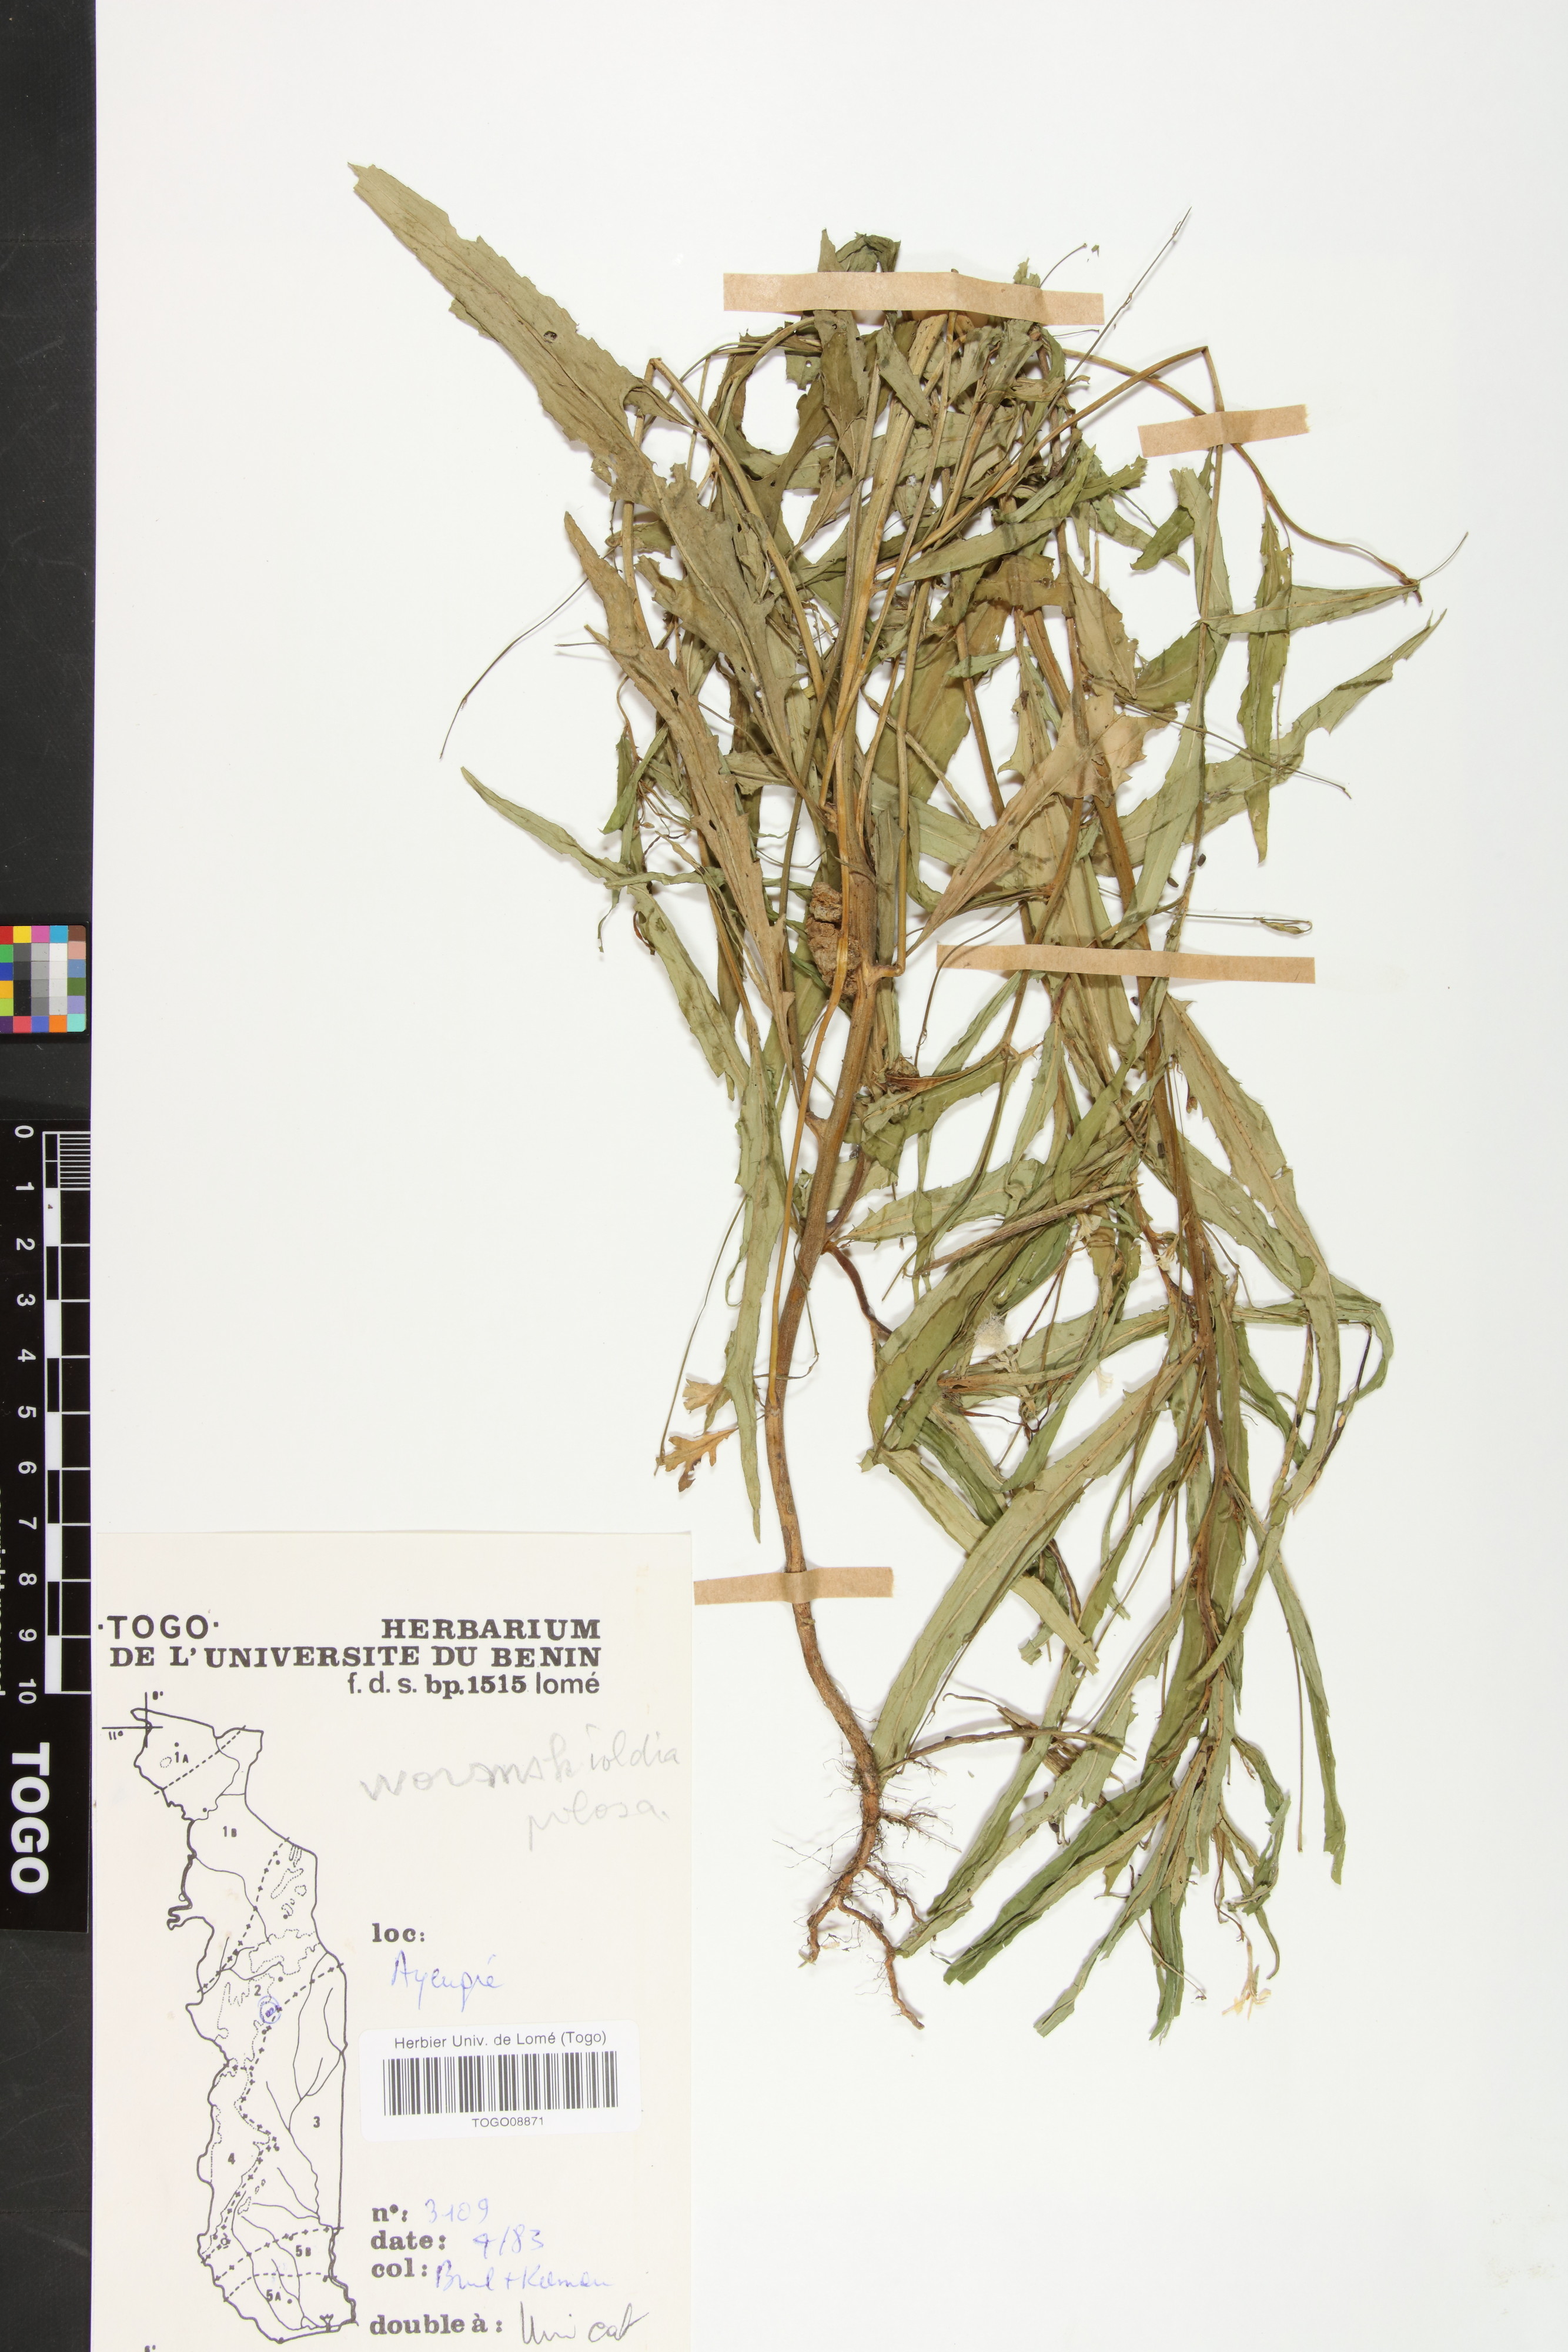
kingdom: Plantae
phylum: Tracheophyta
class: Magnoliopsida
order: Malpighiales
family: Turneraceae
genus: Tricliceras
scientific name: Tricliceras pilosum
